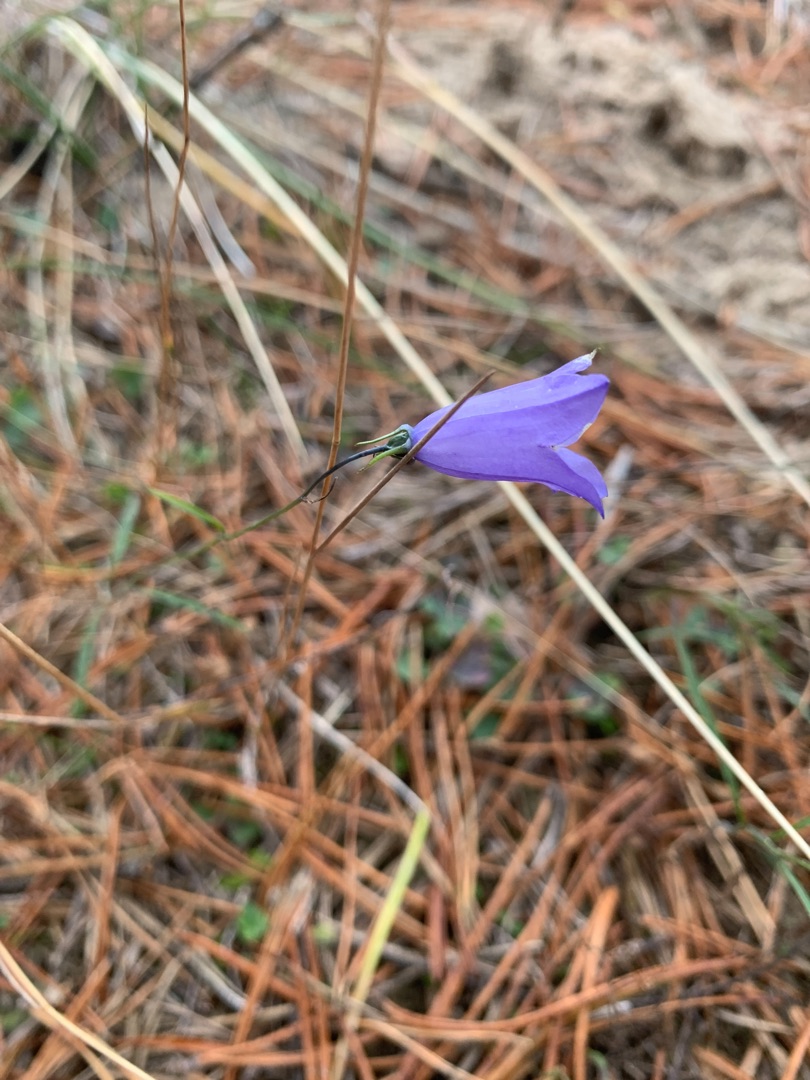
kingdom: Plantae
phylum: Tracheophyta
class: Magnoliopsida
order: Asterales
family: Campanulaceae
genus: Campanula
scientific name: Campanula rotundifolia
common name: Liden klokke
